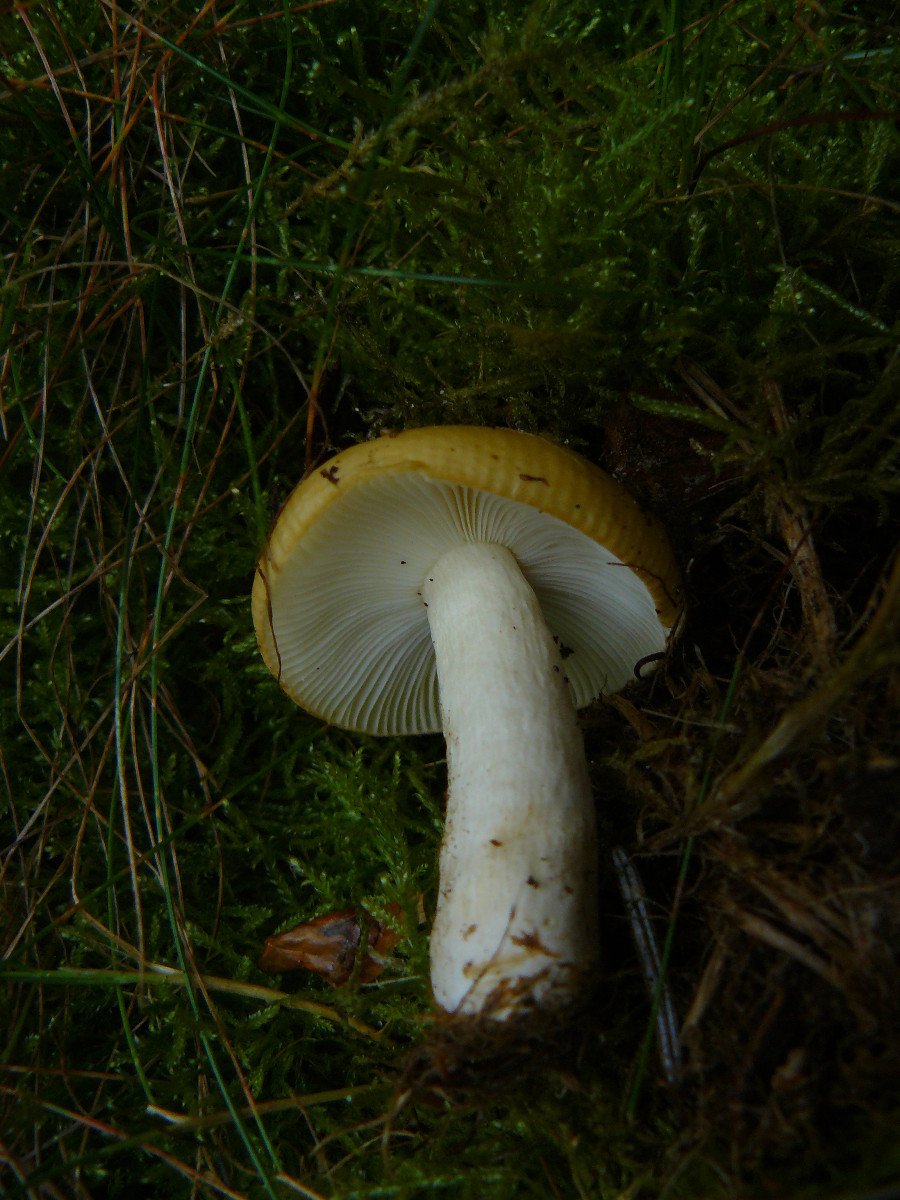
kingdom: Fungi
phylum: Basidiomycota
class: Agaricomycetes
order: Russulales
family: Russulaceae
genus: Russula
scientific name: Russula ochroleuca
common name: okkergul skørhat
